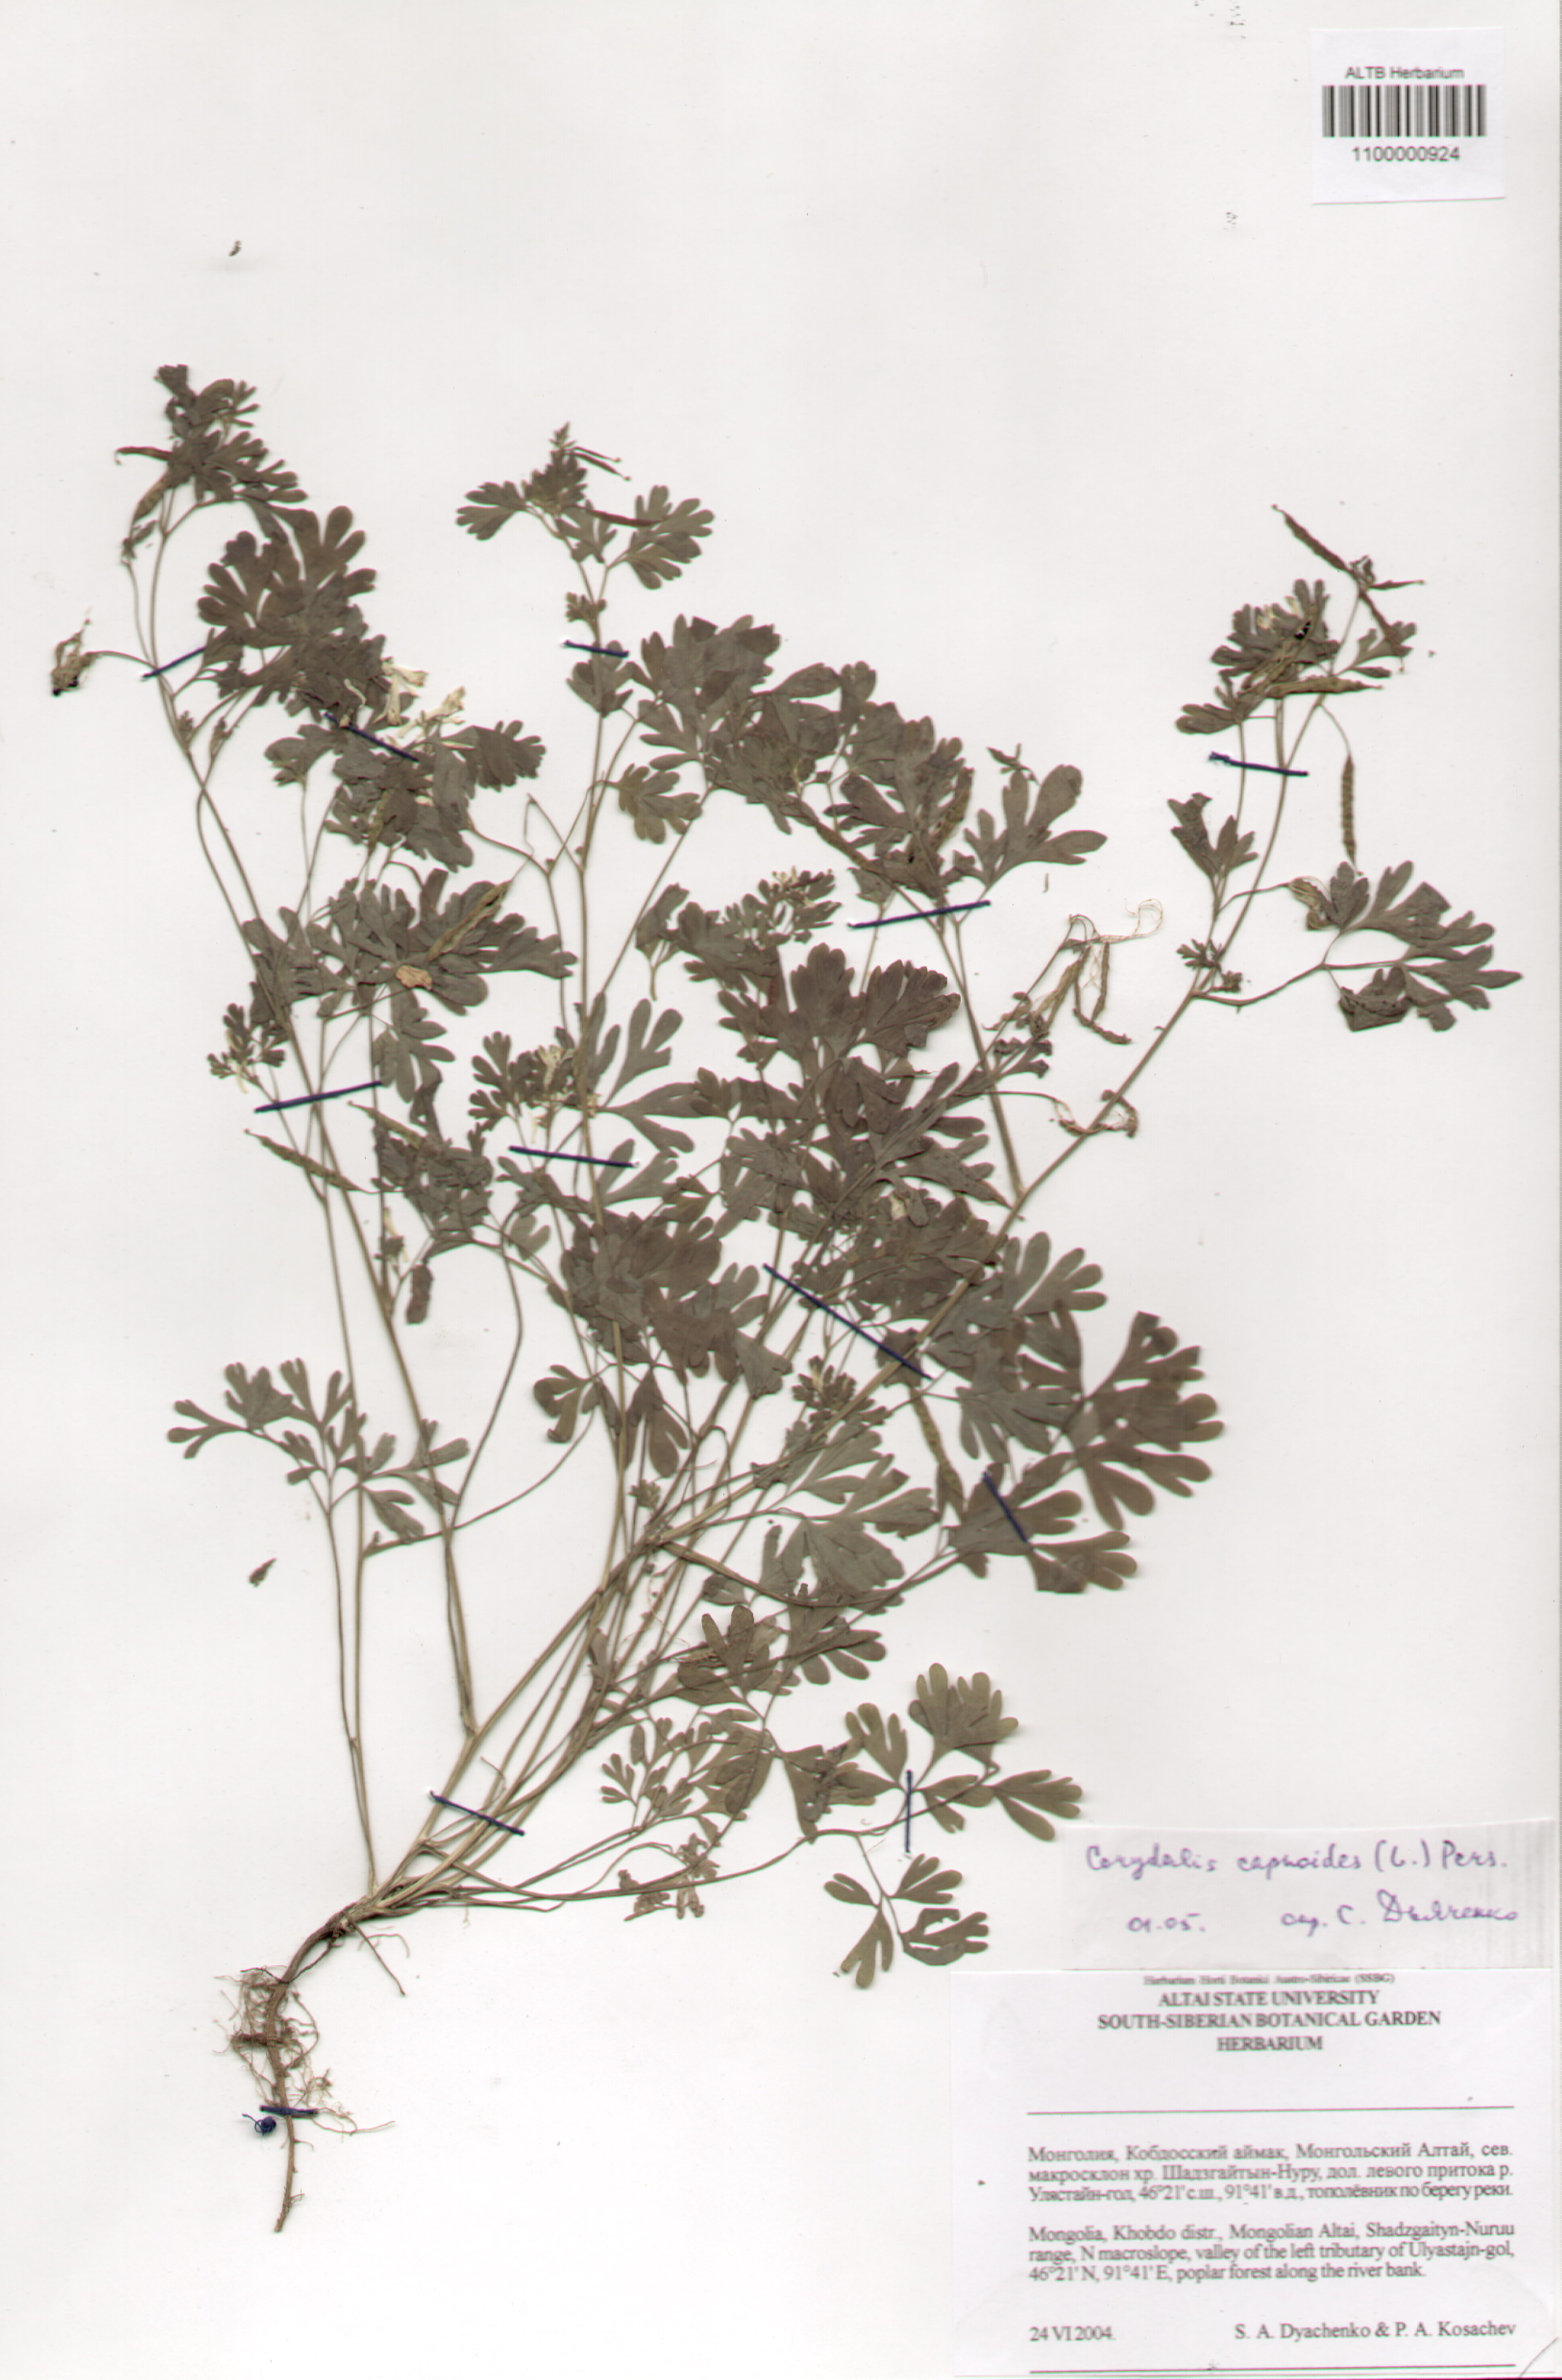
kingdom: Plantae
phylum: Tracheophyta
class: Magnoliopsida
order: Ranunculales
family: Papaveraceae
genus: Corydalis
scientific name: Corydalis capnoides
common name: Beaked corydalis
